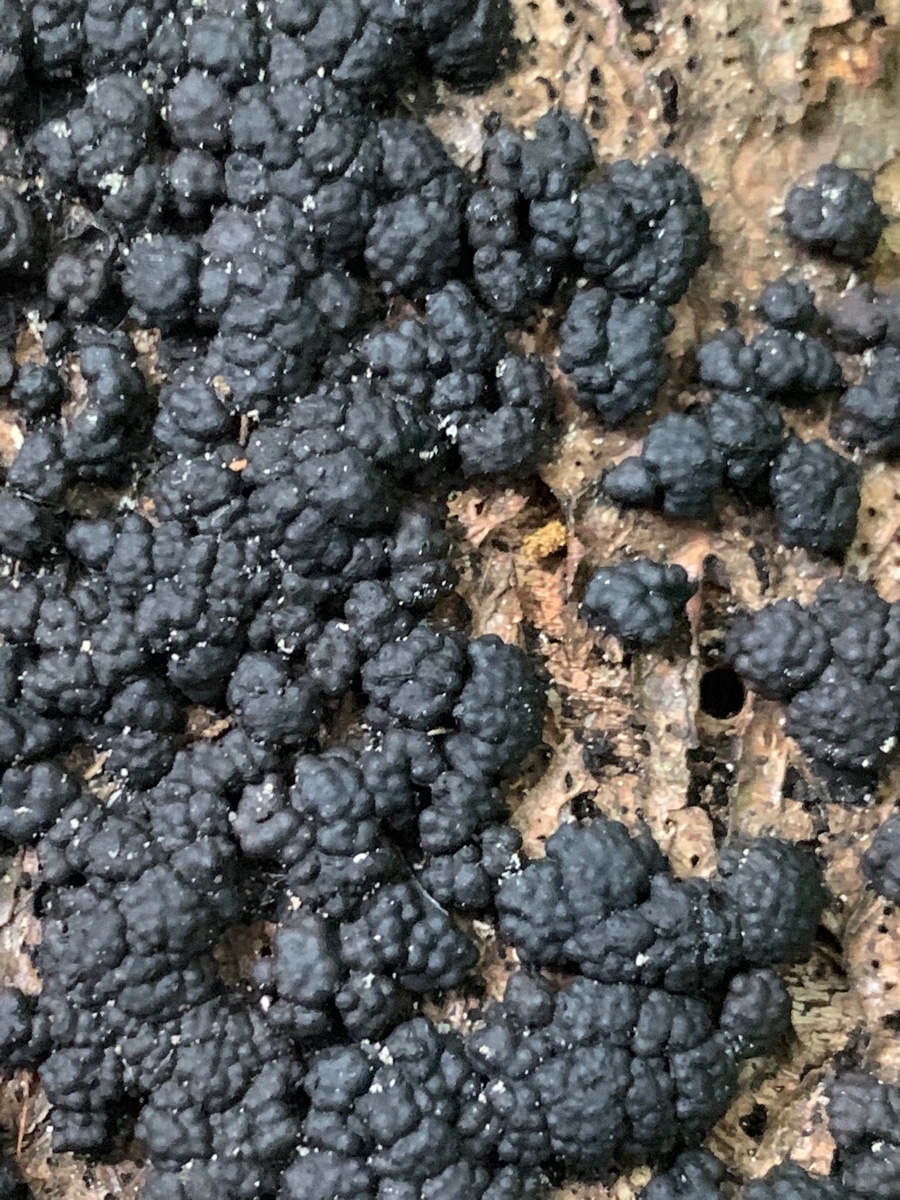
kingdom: Fungi
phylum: Ascomycota
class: Sordariomycetes
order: Xylariales
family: Hypoxylaceae
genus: Jackrogersella
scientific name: Jackrogersella cohaerens
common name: sammenflydende kulbær
